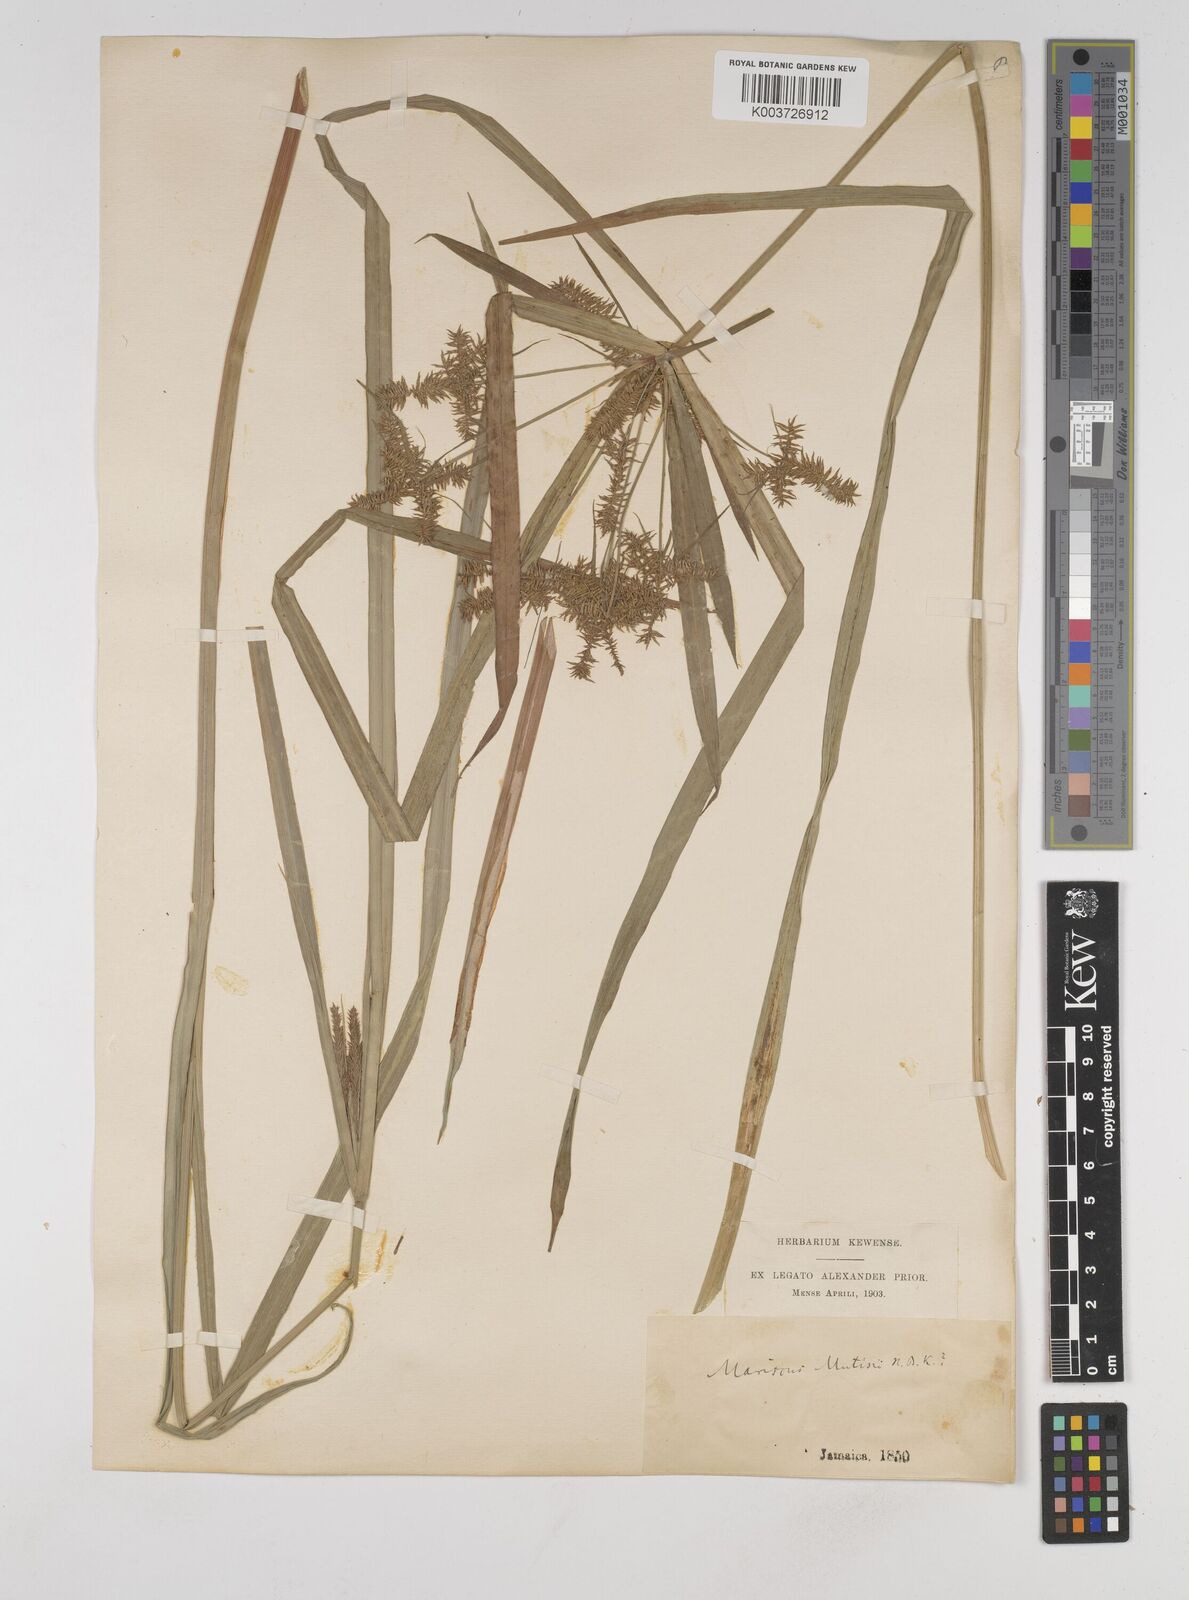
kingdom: Plantae
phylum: Tracheophyta
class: Liliopsida
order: Poales
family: Cyperaceae
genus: Cyperus
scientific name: Cyperus
